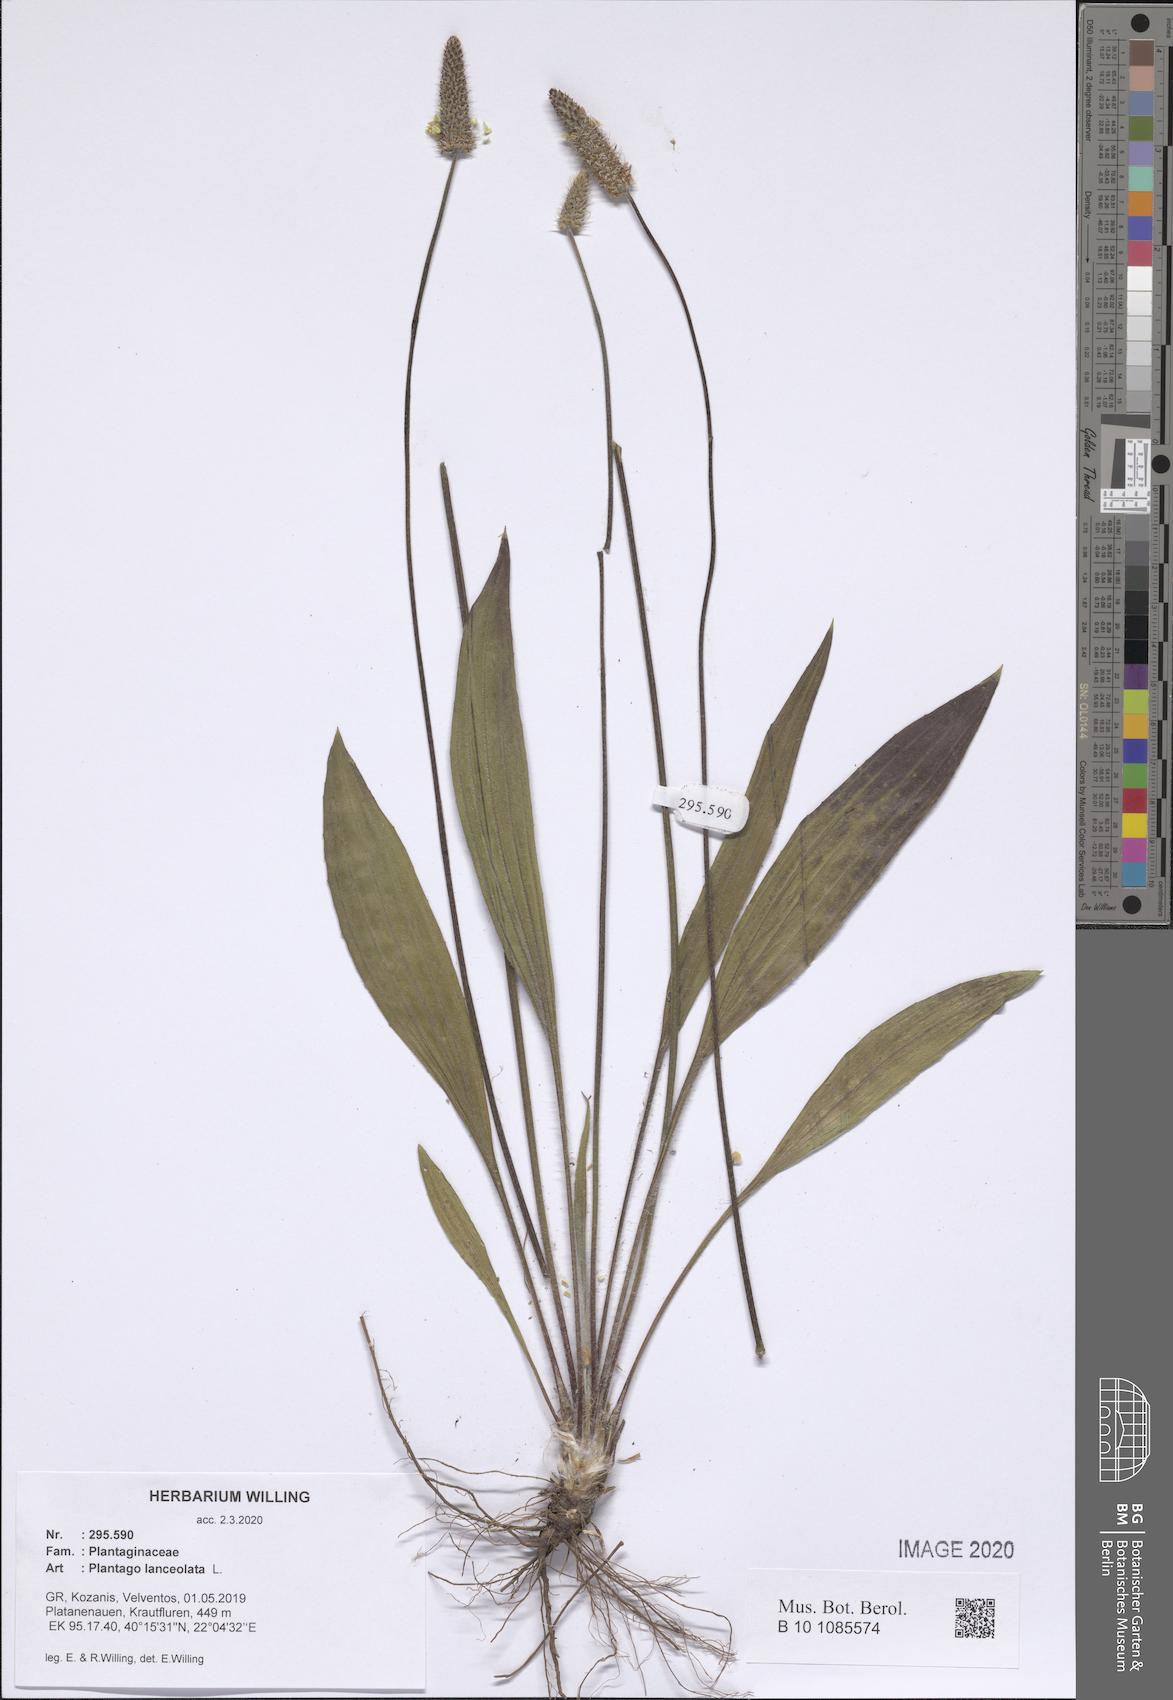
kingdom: Plantae
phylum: Tracheophyta
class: Magnoliopsida
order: Lamiales
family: Plantaginaceae
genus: Plantago
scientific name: Plantago lanceolata
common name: Ribwort plantain
